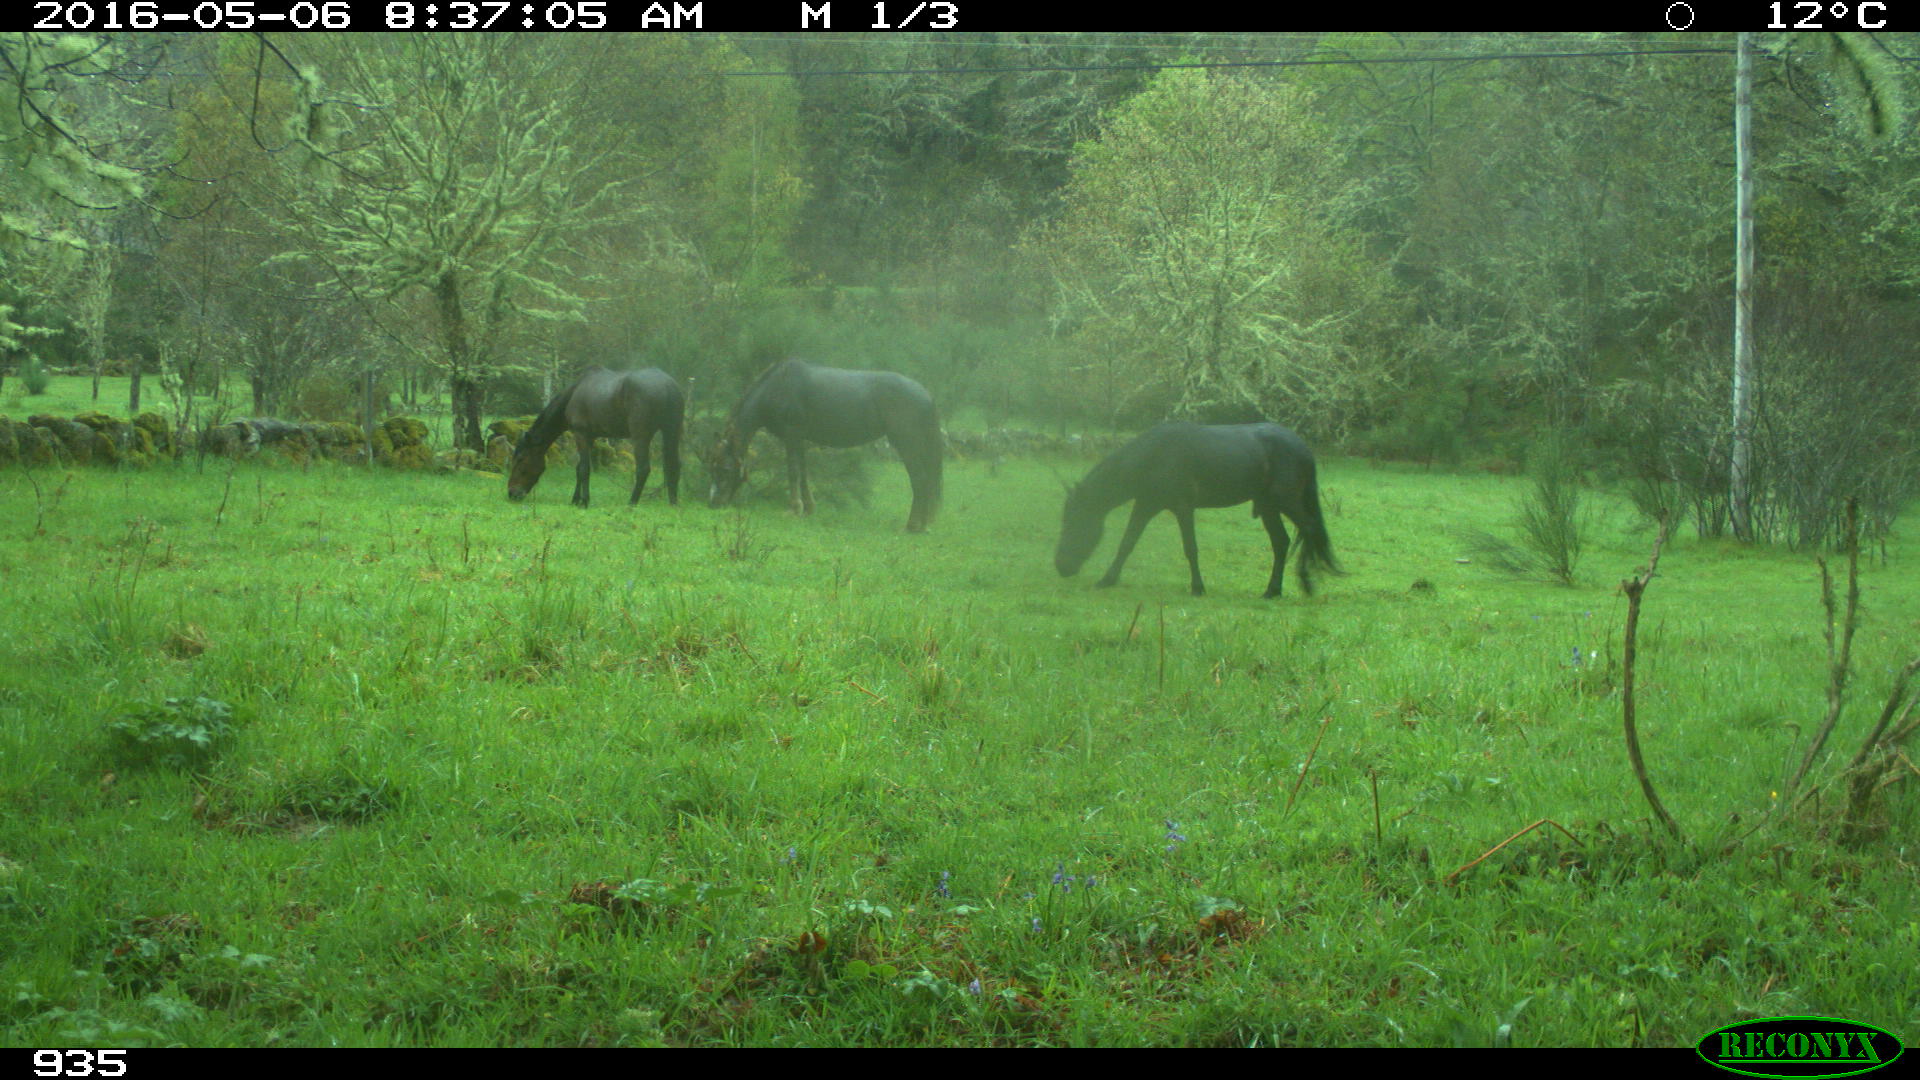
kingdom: Animalia
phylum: Chordata
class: Mammalia
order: Perissodactyla
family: Equidae
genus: Equus
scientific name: Equus caballus
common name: Horse
